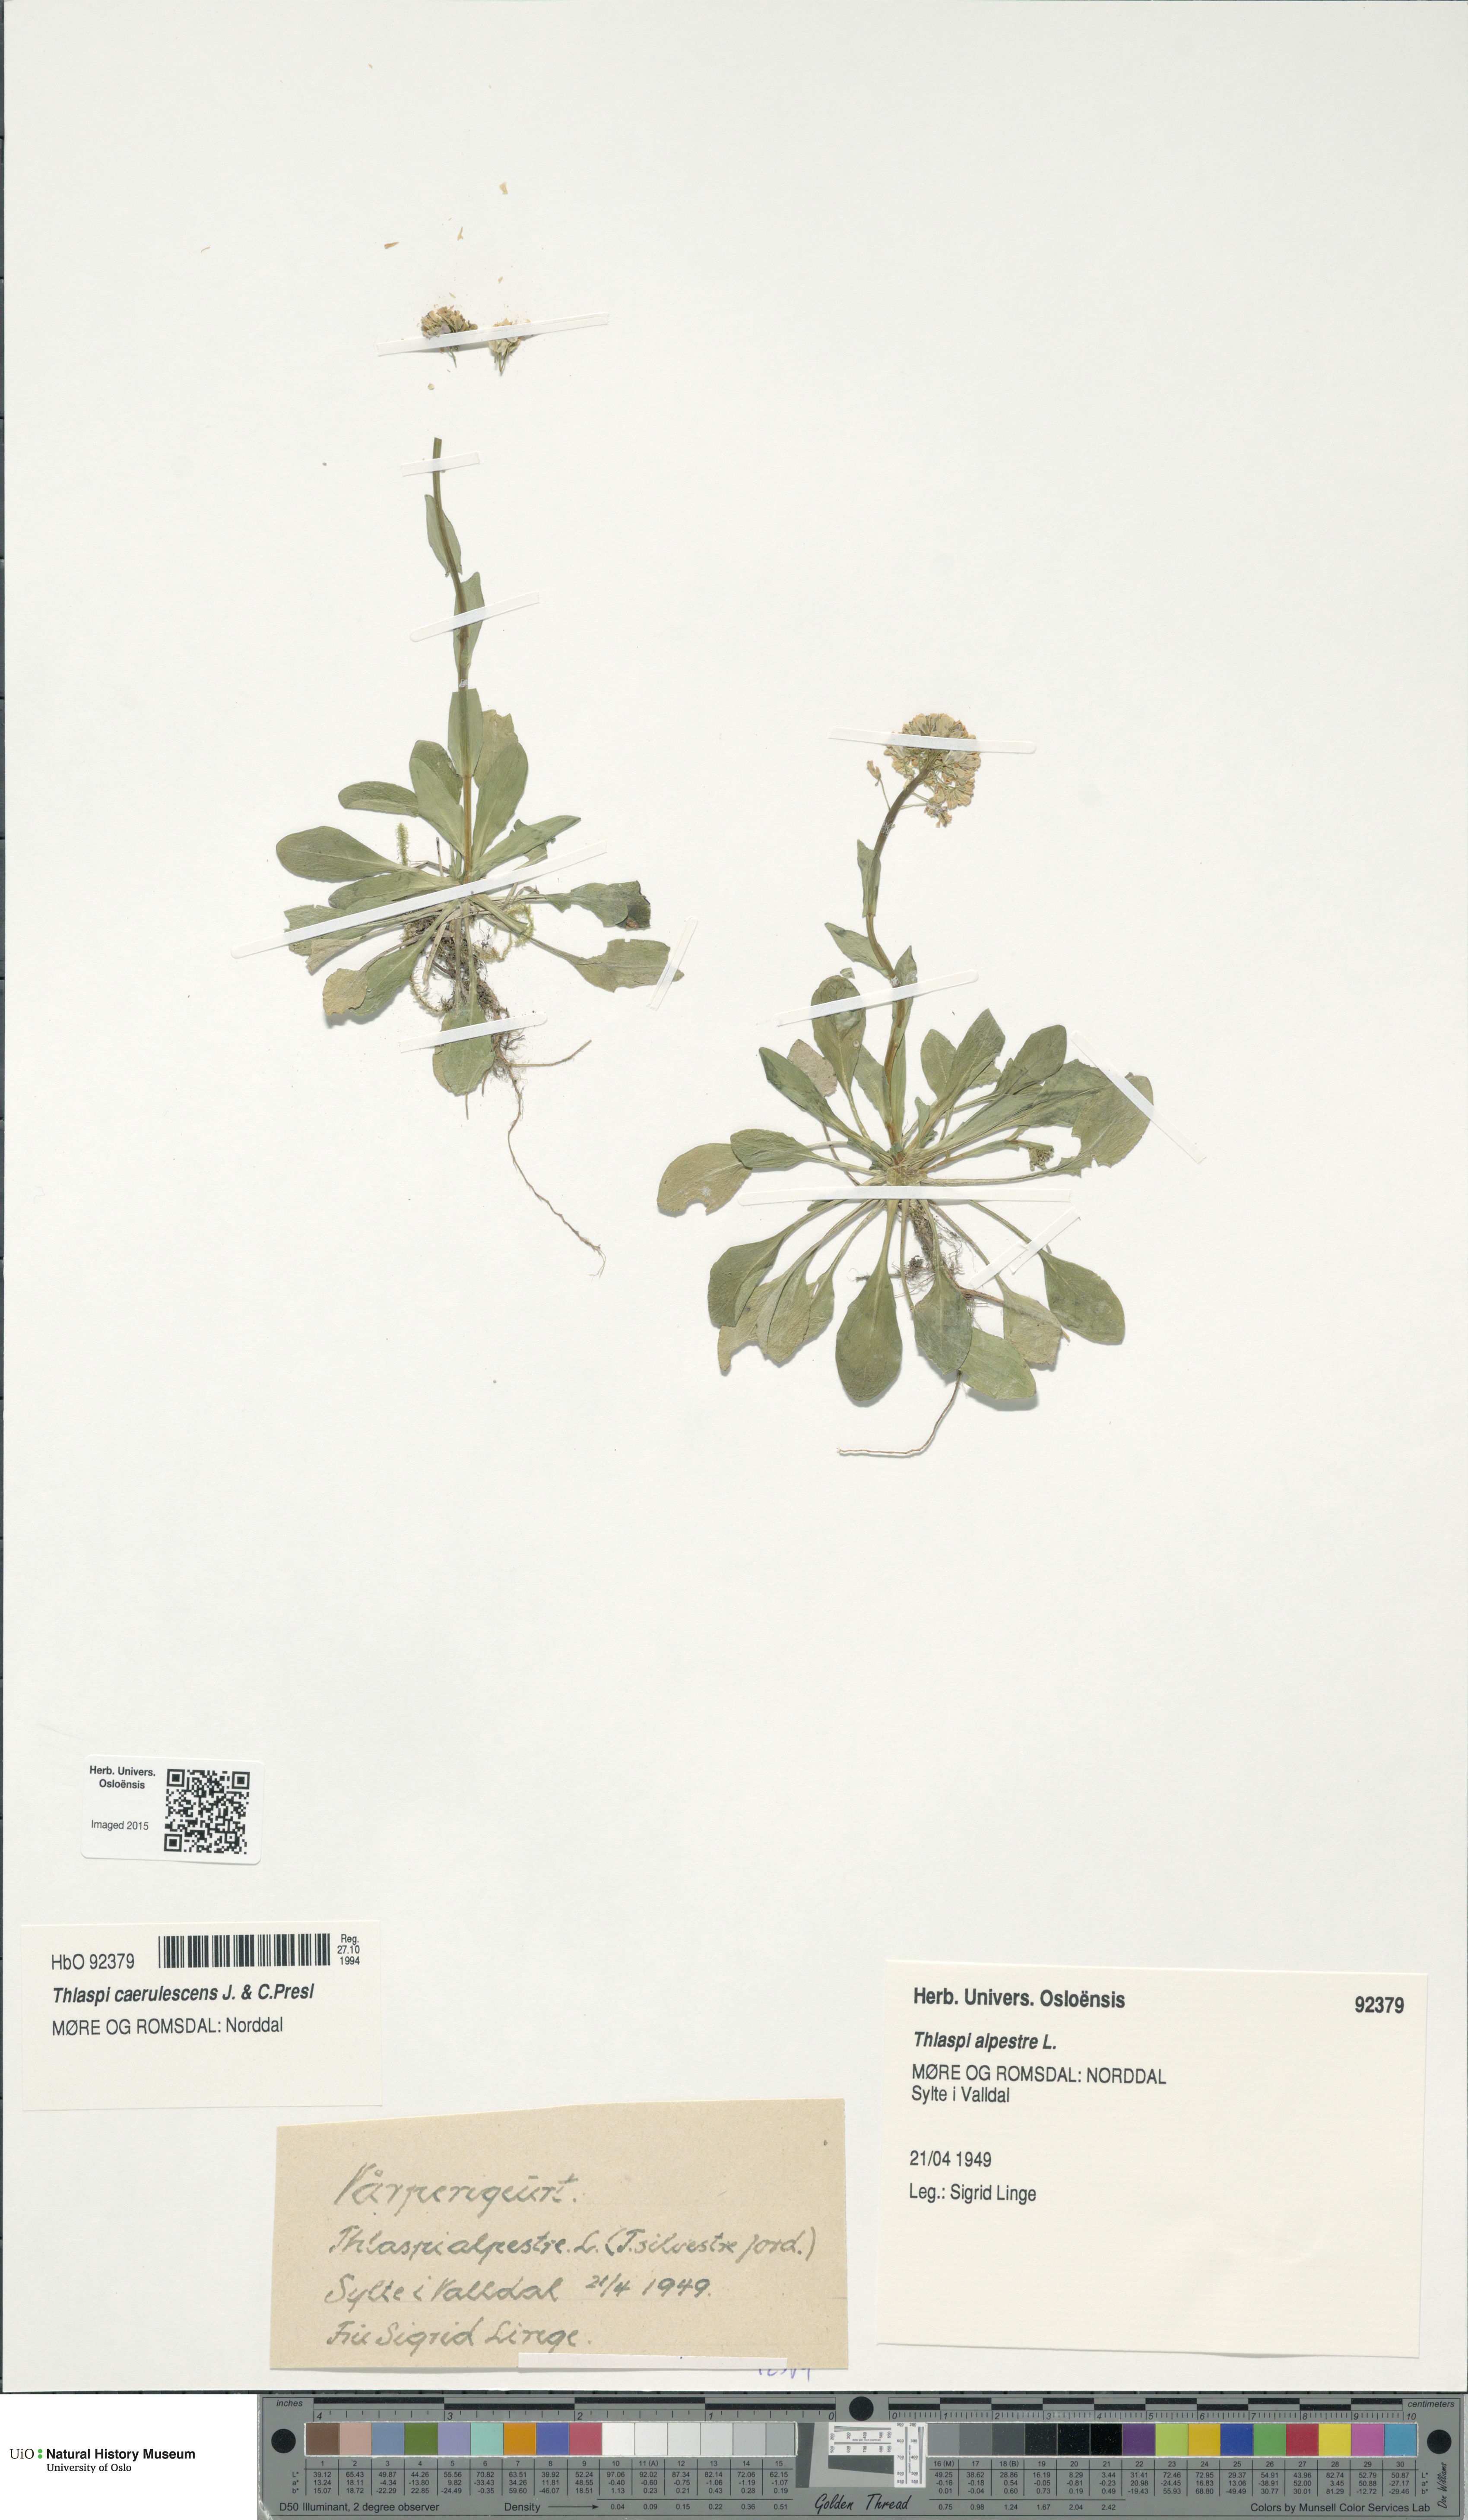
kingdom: Plantae
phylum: Tracheophyta
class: Magnoliopsida
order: Brassicales
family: Brassicaceae
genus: Noccaea
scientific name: Noccaea caerulescens
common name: Alpine pennycress
